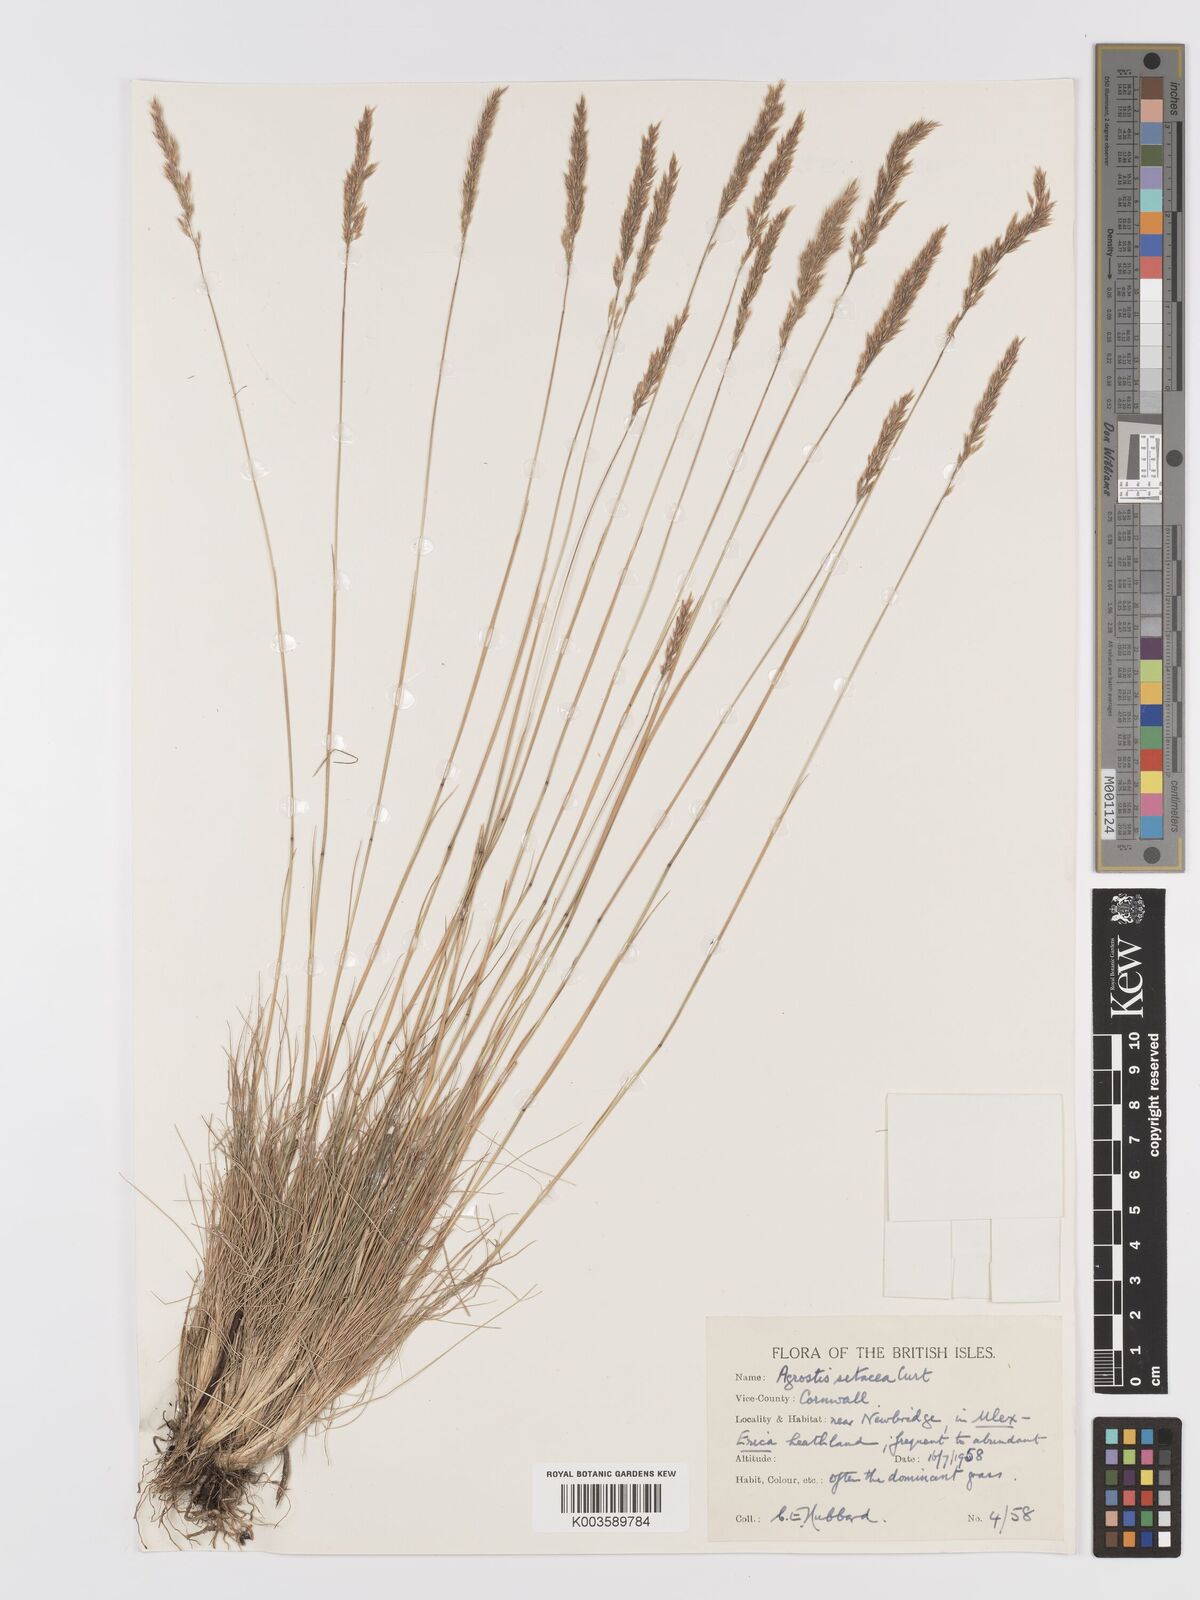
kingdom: Plantae
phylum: Tracheophyta
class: Liliopsida
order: Poales
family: Poaceae
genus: Alpagrostis
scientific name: Alpagrostis setacea
